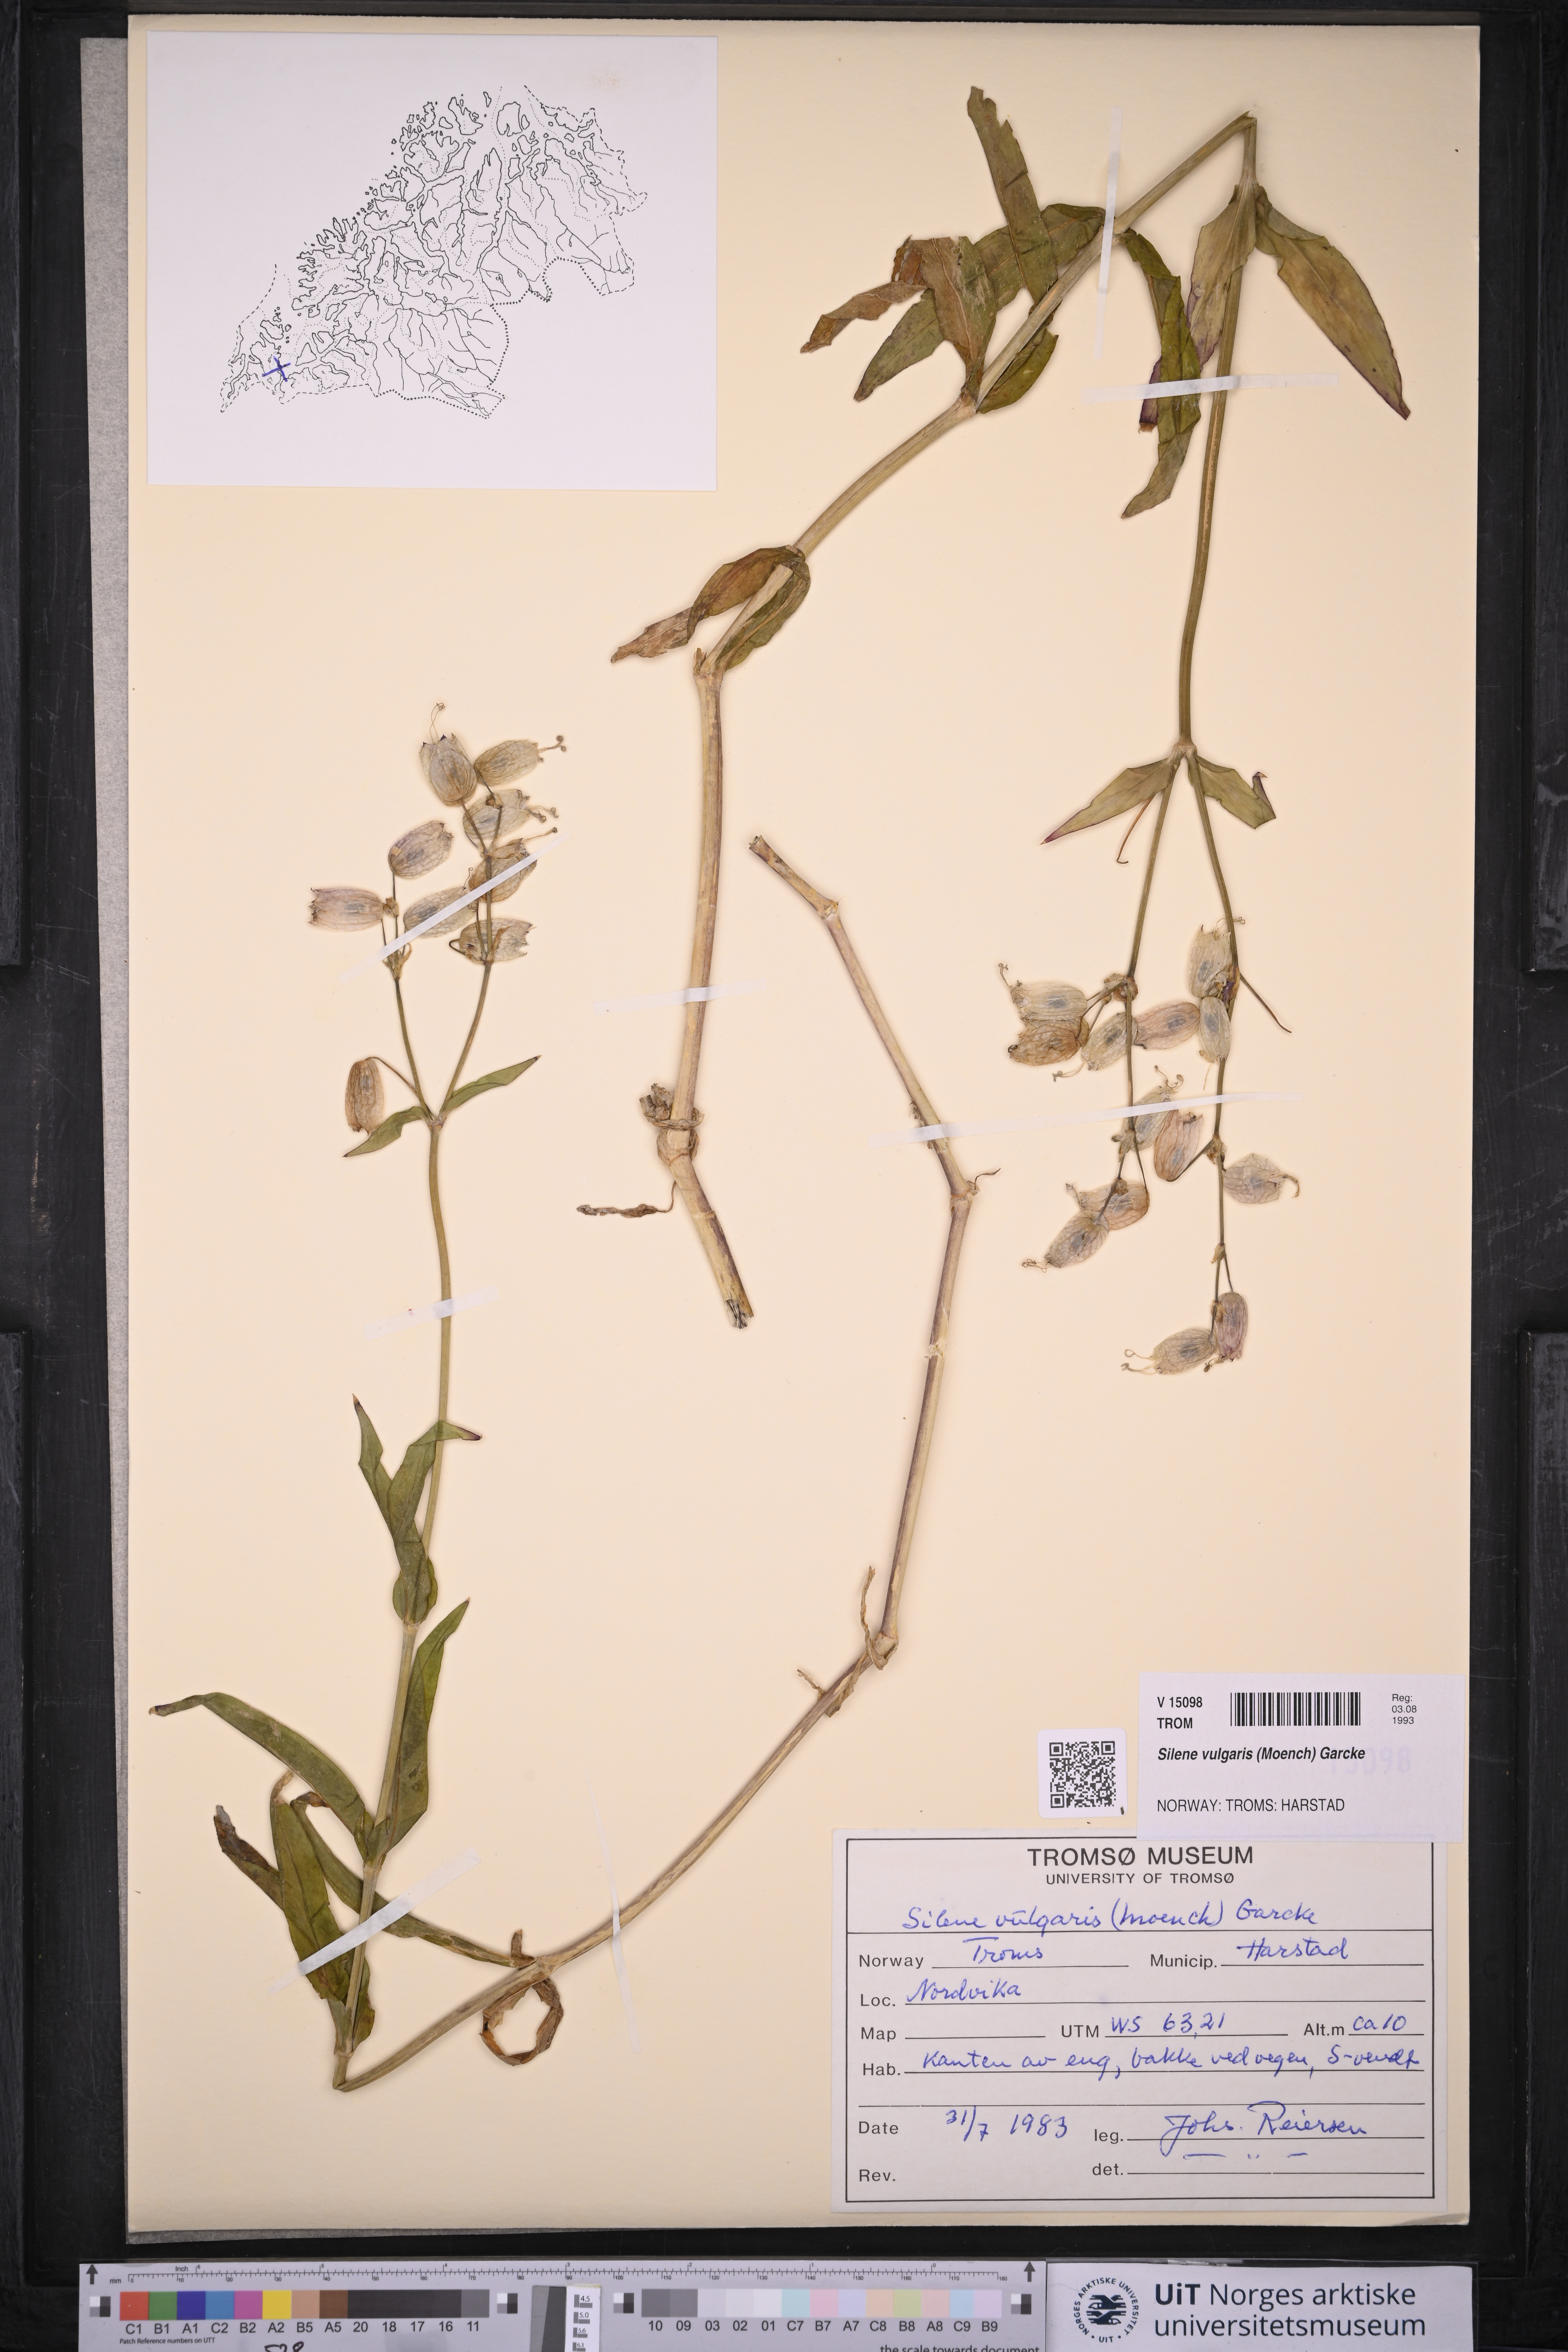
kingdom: Plantae
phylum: Tracheophyta
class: Magnoliopsida
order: Caryophyllales
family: Caryophyllaceae
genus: Silene
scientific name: Silene vulgaris
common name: Bladder campion
